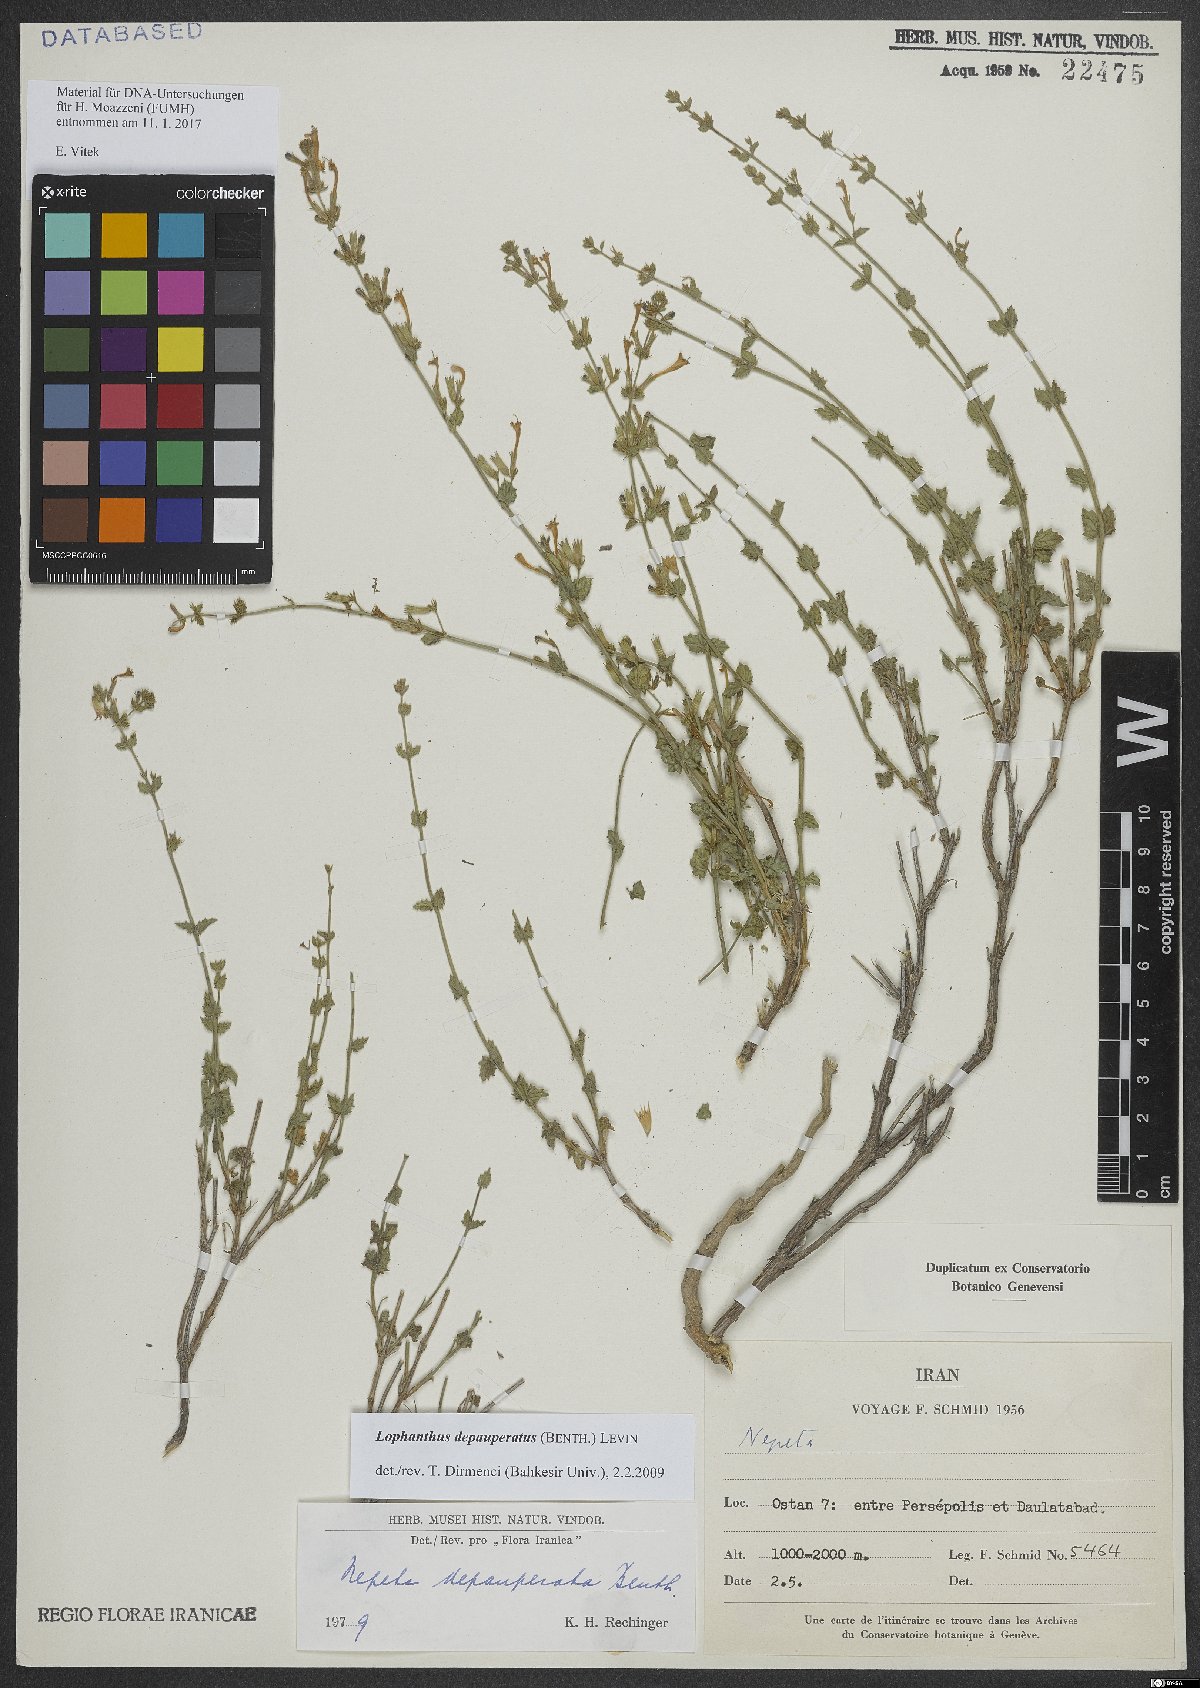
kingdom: Plantae
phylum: Tracheophyta
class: Magnoliopsida
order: Lamiales
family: Lamiaceae
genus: Nepeta
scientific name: Nepeta depauperata
